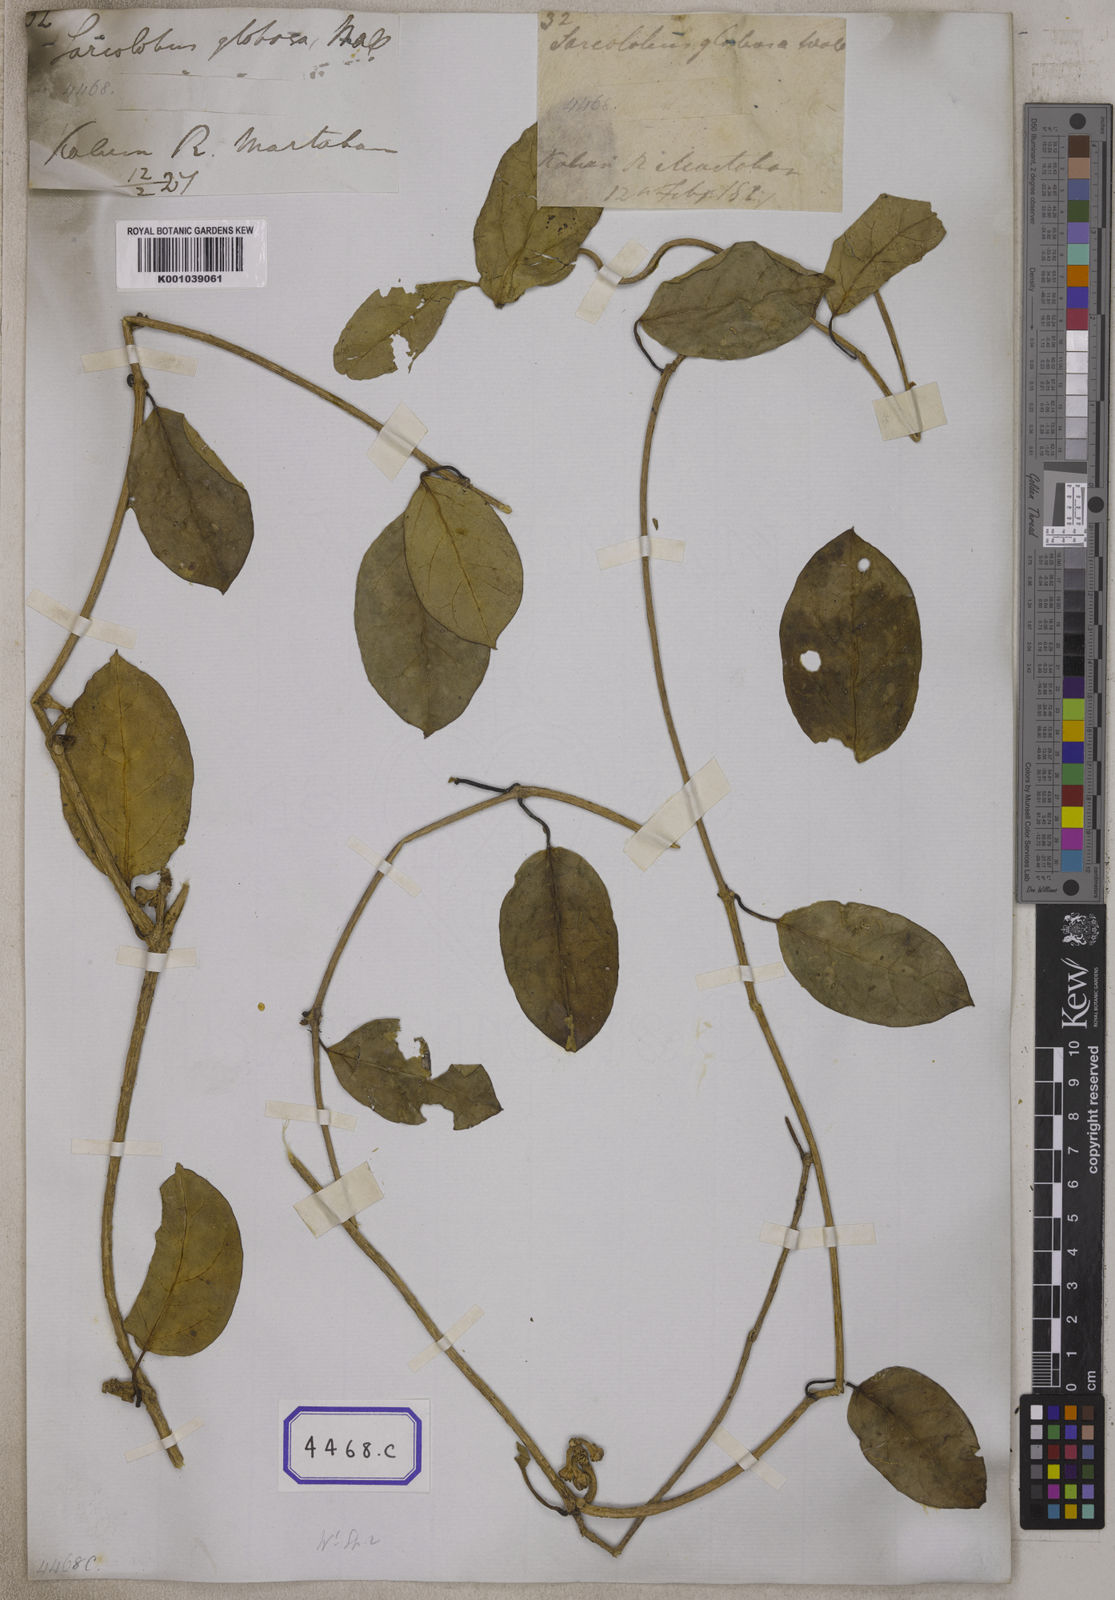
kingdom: Plantae
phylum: Tracheophyta
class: Magnoliopsida
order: Gentianales
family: Apocynaceae
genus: Sarcolobus
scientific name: Sarcolobus globosus
